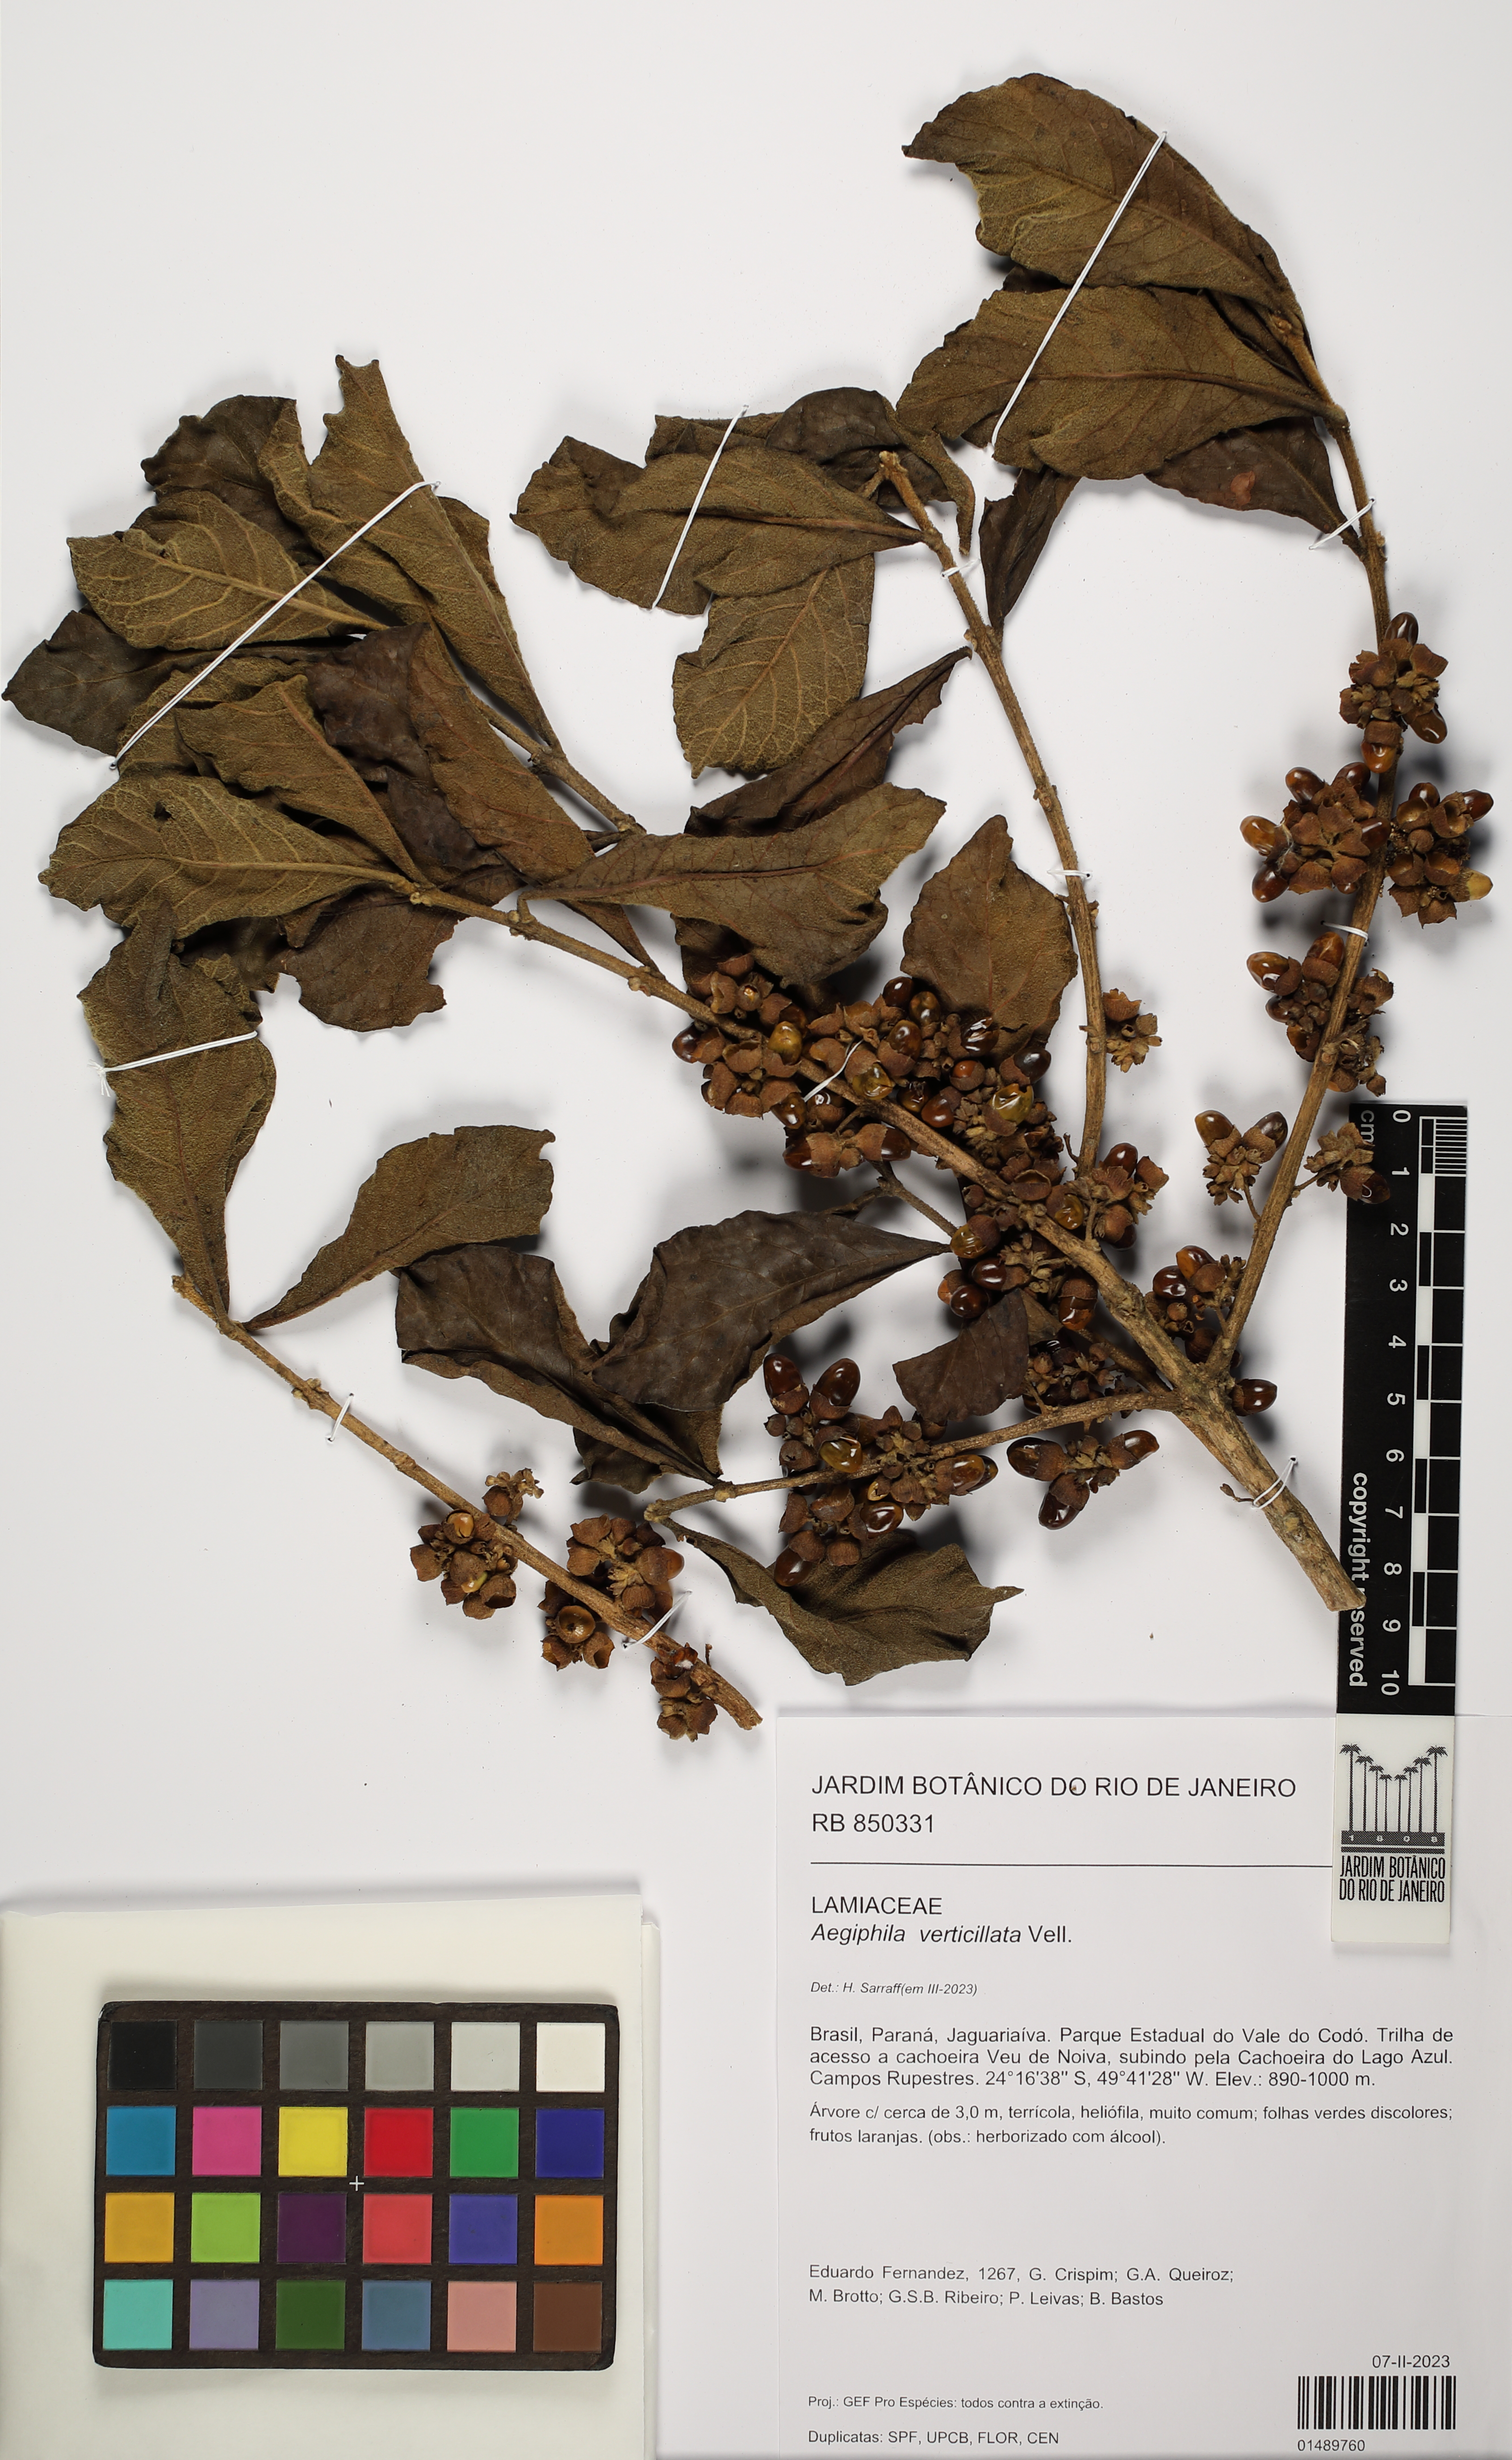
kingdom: Plantae
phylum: Tracheophyta
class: Magnoliopsida
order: Lamiales
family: Lamiaceae
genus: Aegiphila
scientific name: Aegiphila verticillata
